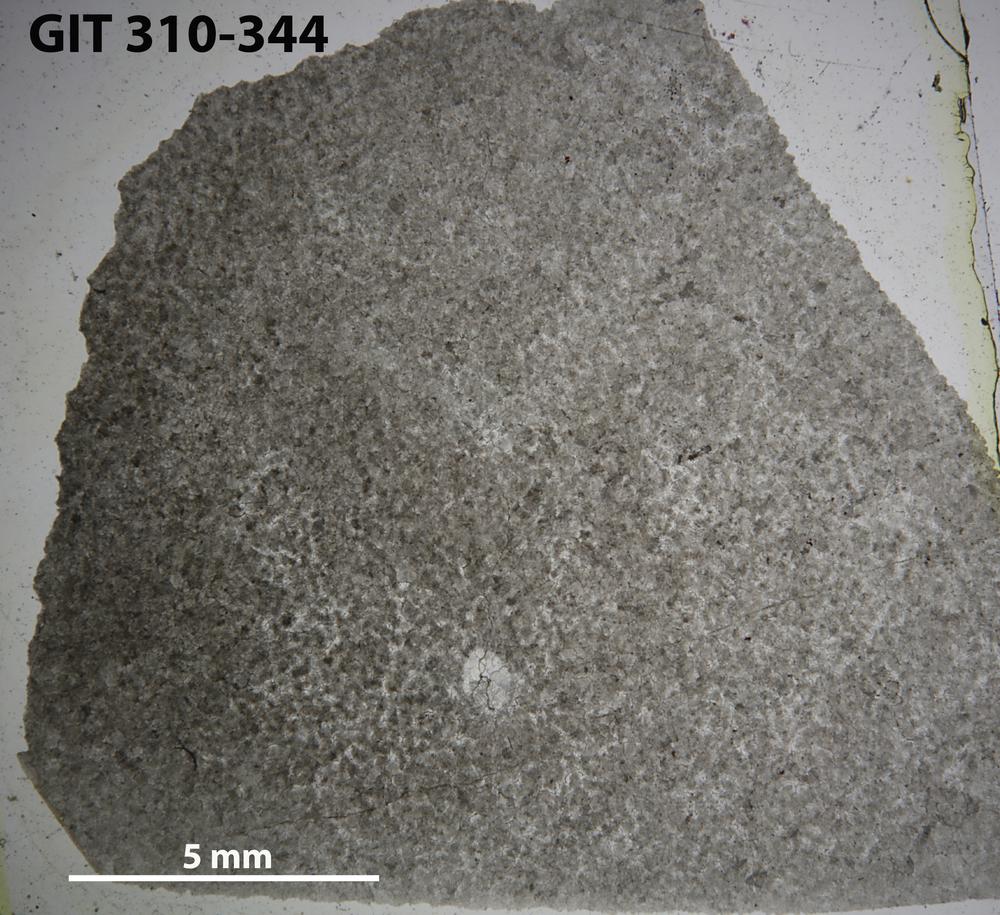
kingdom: Animalia
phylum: Porifera
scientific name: Porifera
